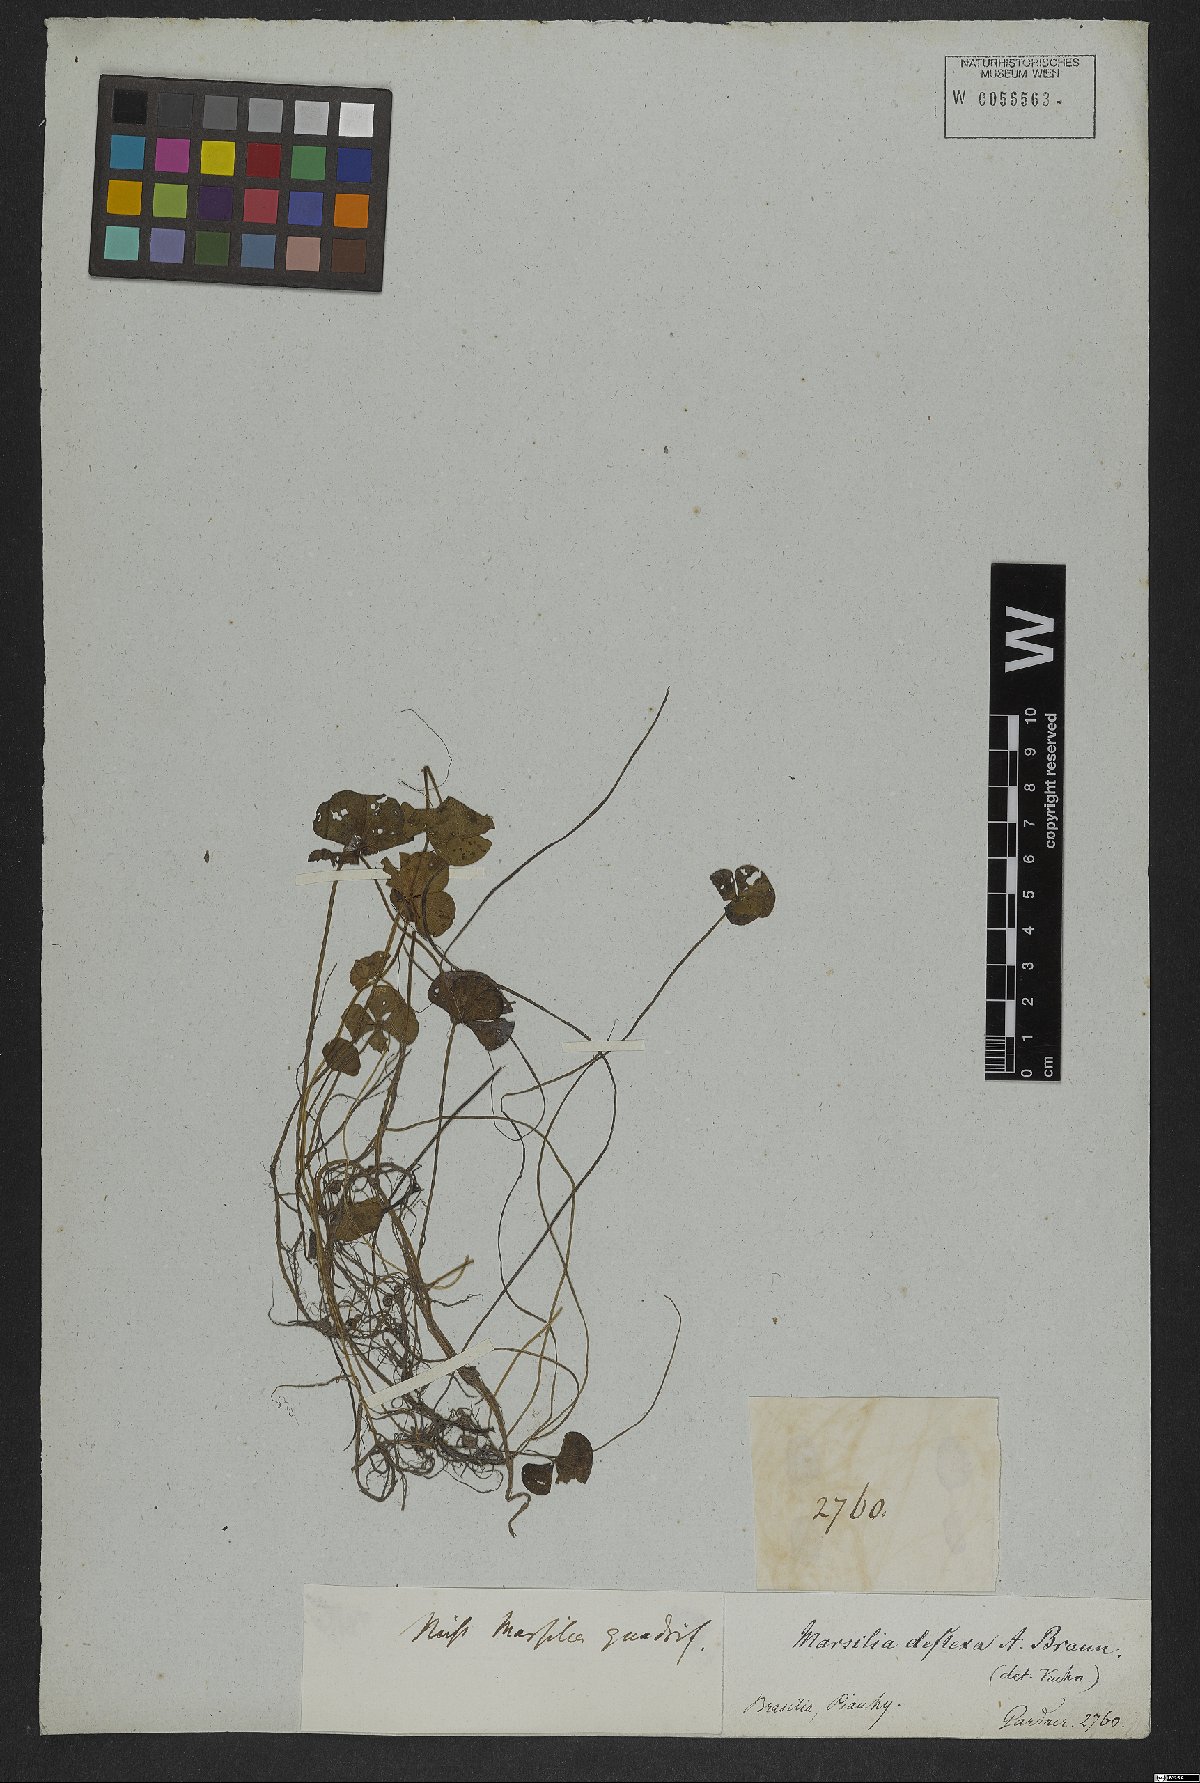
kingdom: Plantae
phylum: Tracheophyta
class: Polypodiopsida
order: Salviniales
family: Marsileaceae
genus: Marsilea
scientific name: Marsilea deflexa
